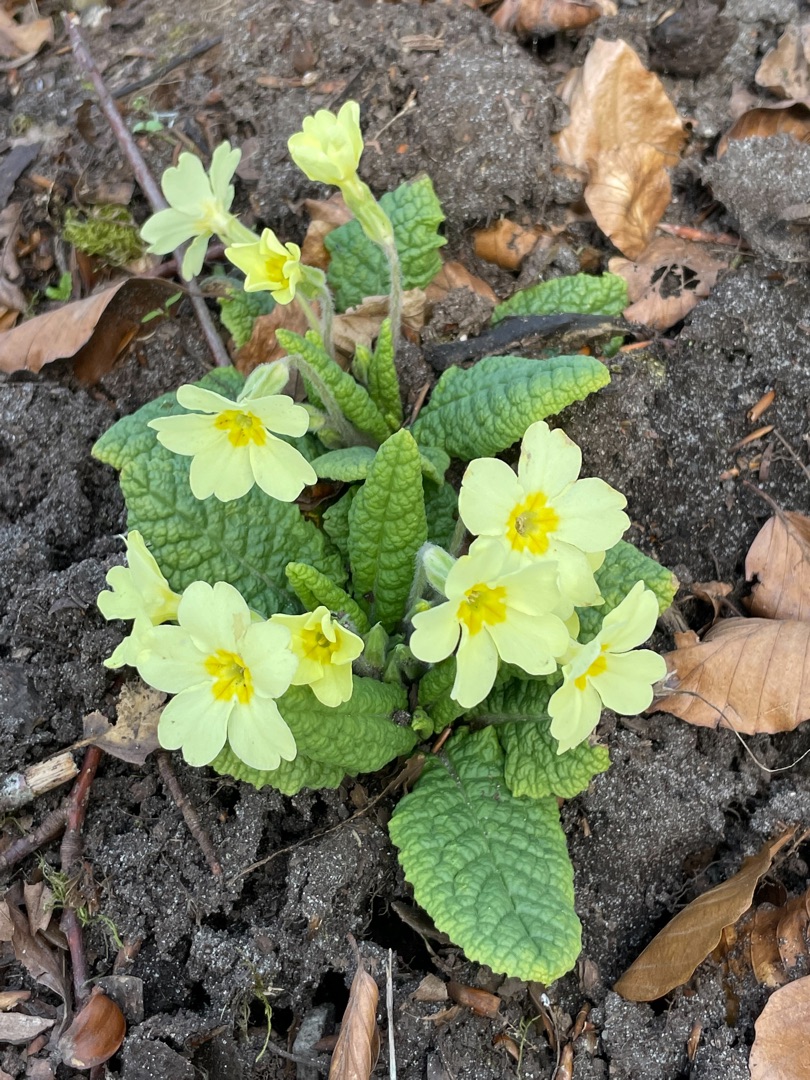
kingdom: Plantae
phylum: Tracheophyta
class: Magnoliopsida
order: Ericales
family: Primulaceae
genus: Primula
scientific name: Primula vulgaris
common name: Storblomstret kodriver
